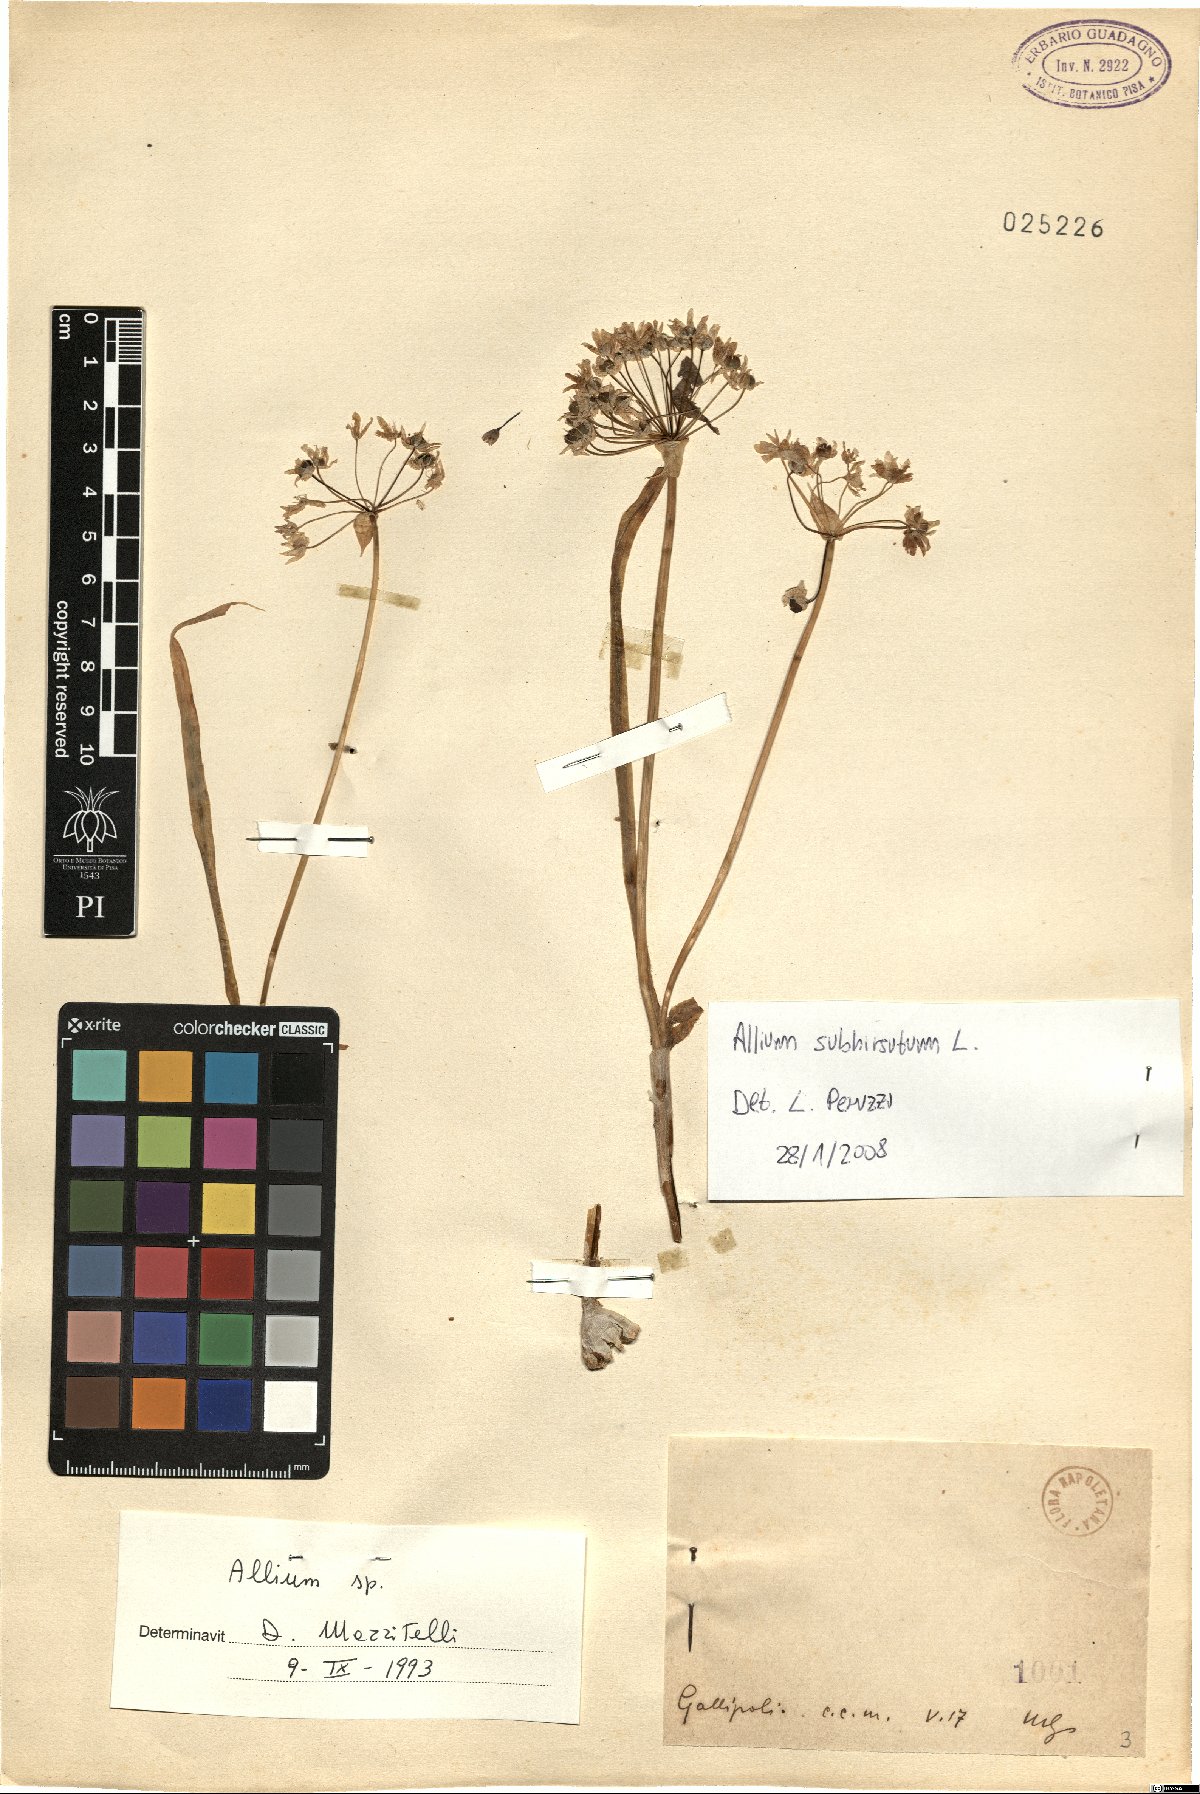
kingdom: Plantae
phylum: Tracheophyta
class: Liliopsida
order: Asparagales
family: Amaryllidaceae
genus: Allium
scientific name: Allium subhirsutum
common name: Hairy garlic
